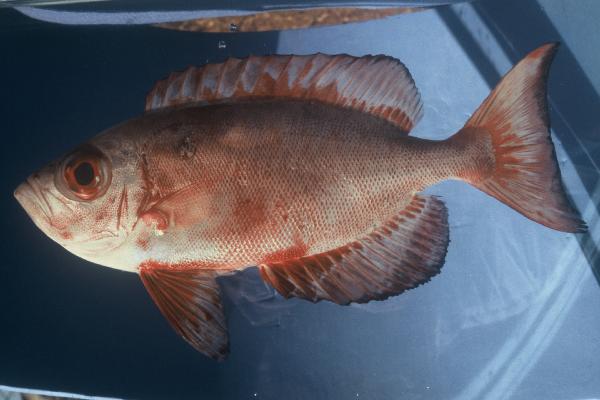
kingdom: Animalia
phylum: Chordata
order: Perciformes
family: Priacanthidae
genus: Priacanthus
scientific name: Priacanthus hamrur
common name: Moontail bullseye
